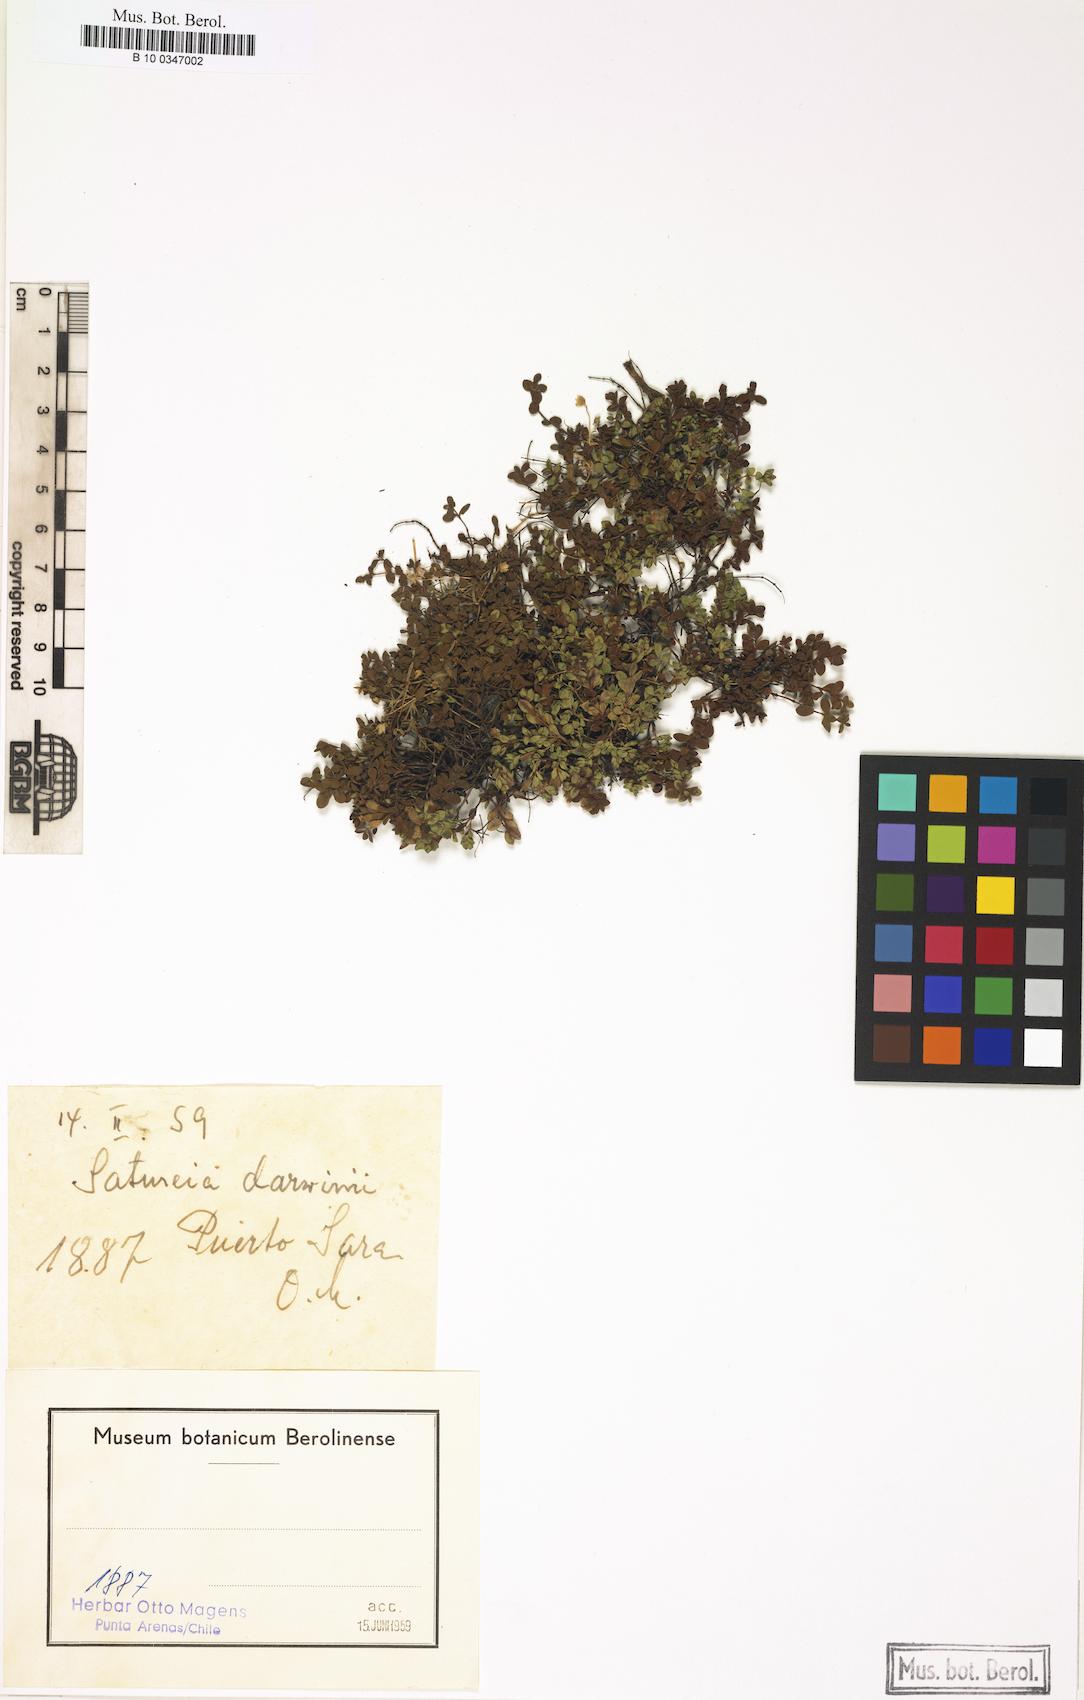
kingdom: Plantae
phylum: Tracheophyta
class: Magnoliopsida
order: Lamiales
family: Lamiaceae
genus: Clinopodium
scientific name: Clinopodium darwinii
